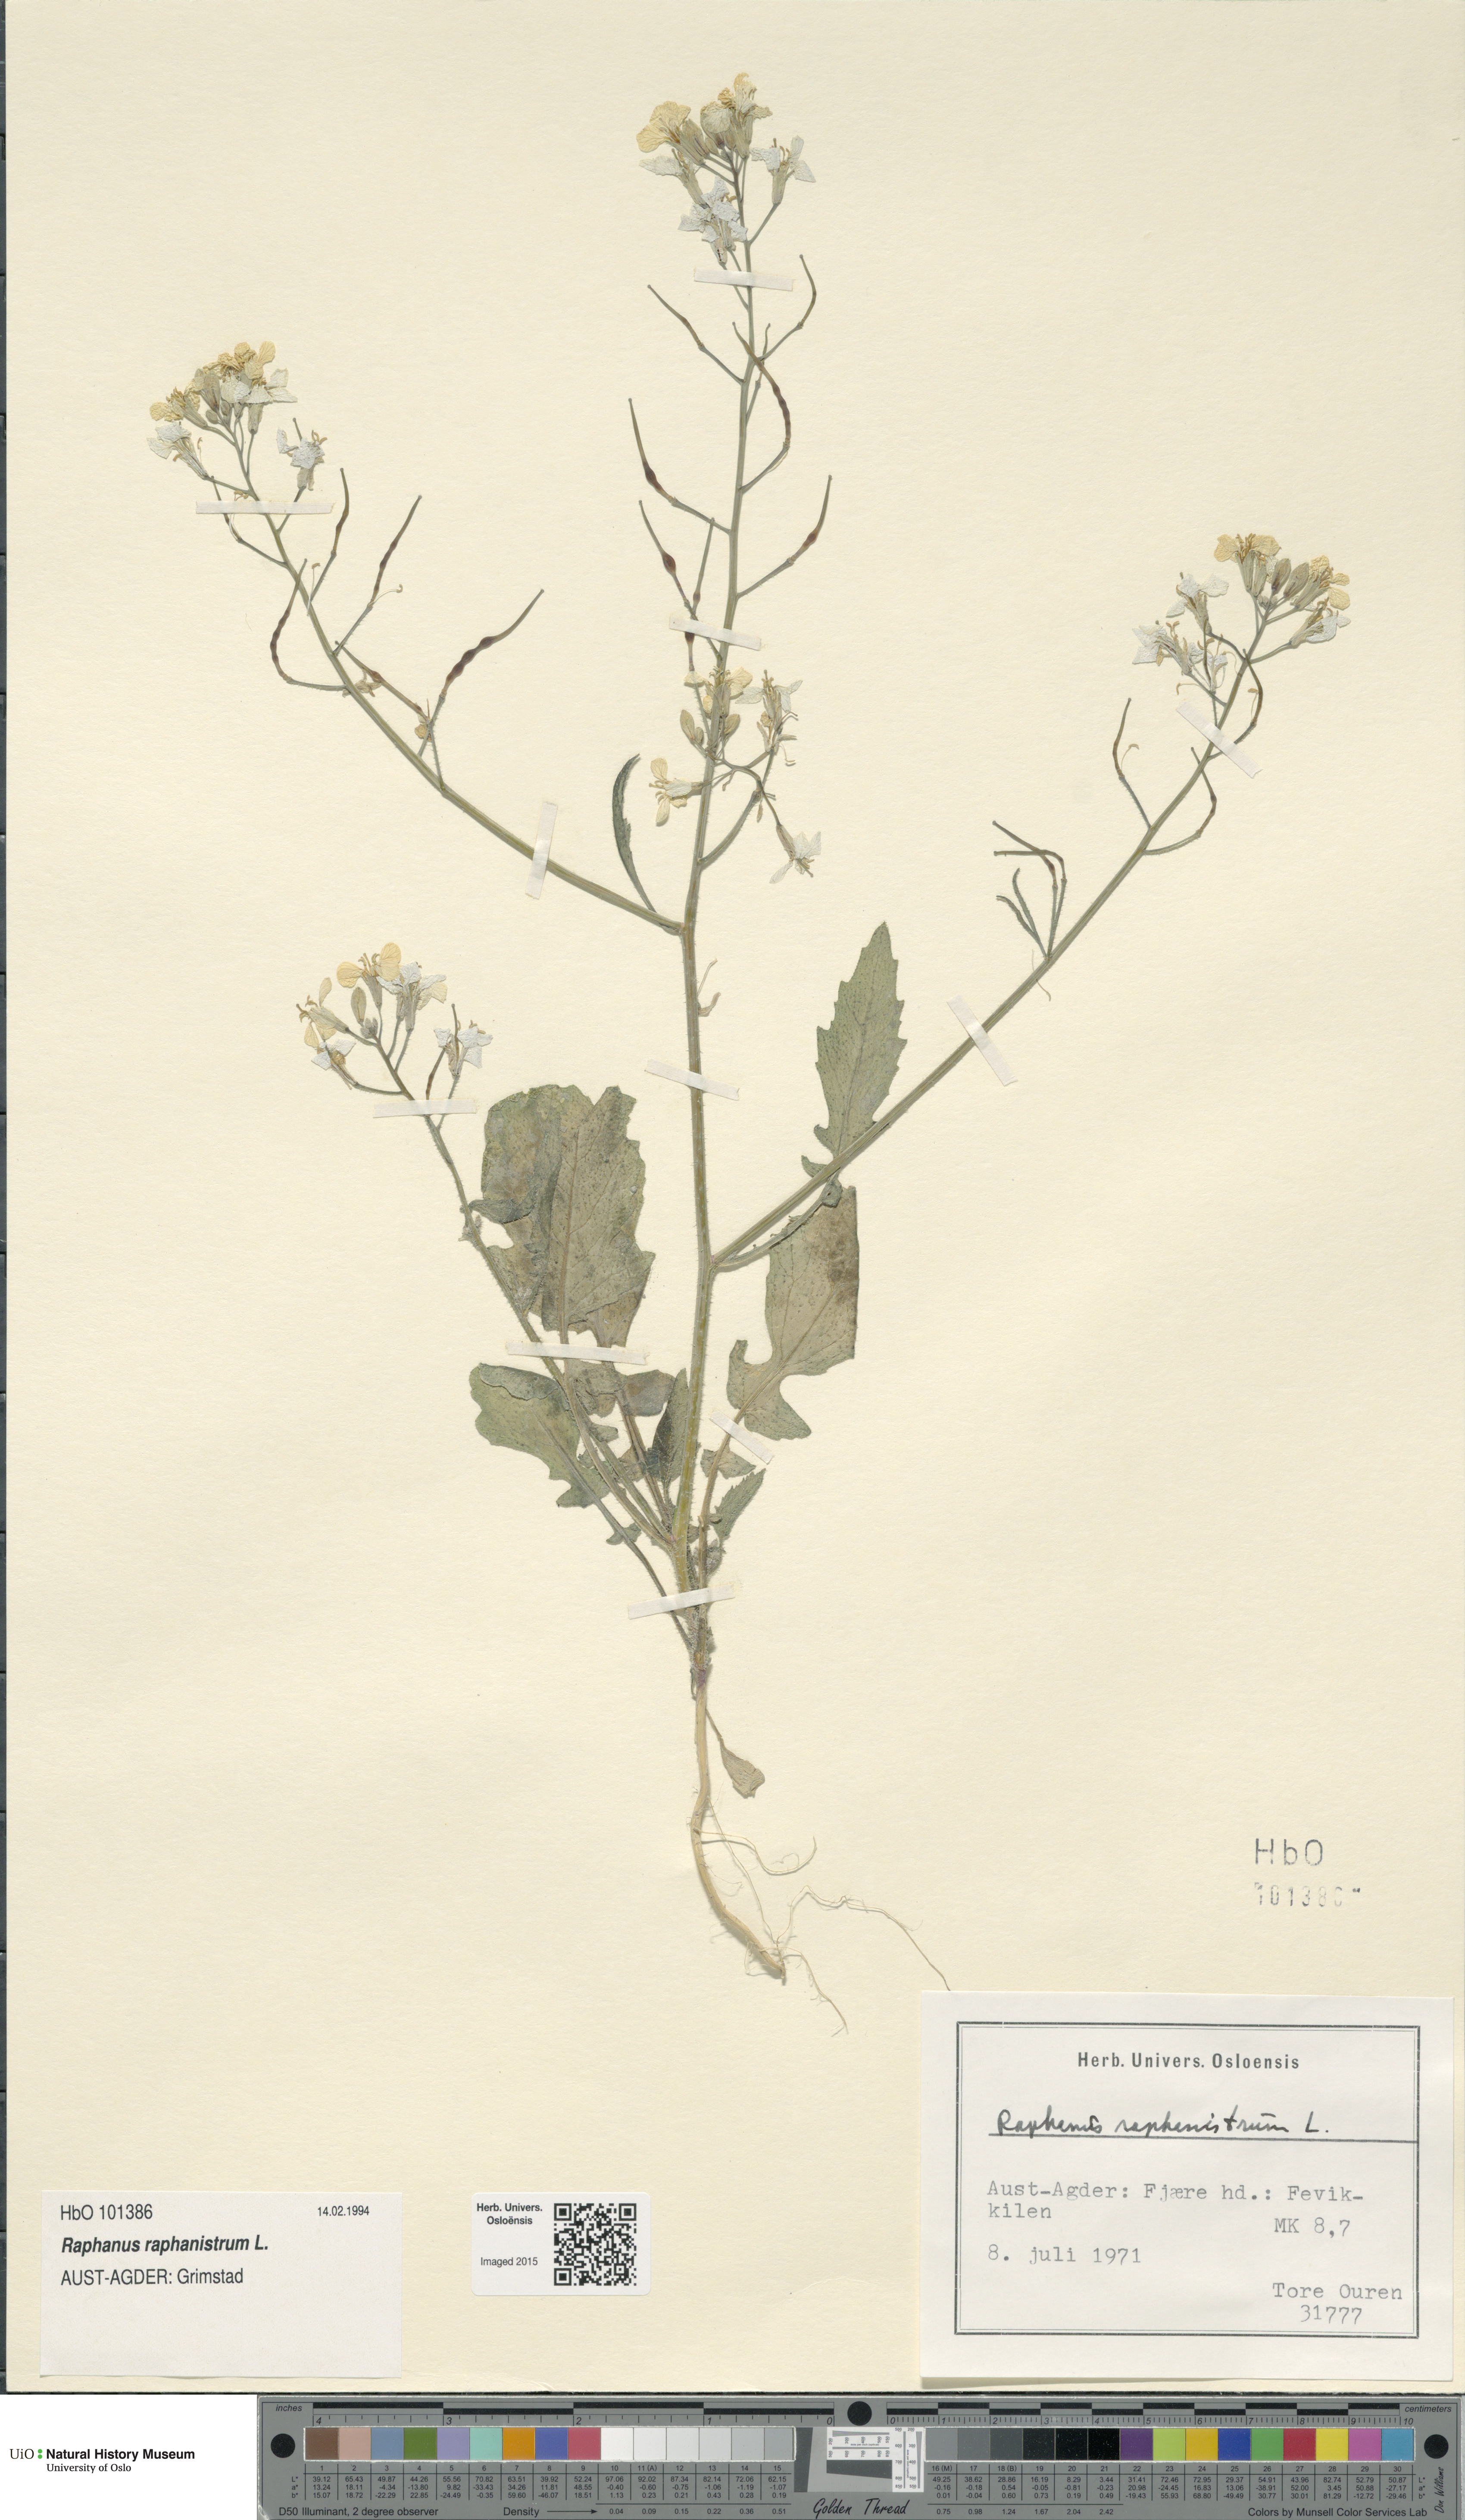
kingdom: Plantae
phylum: Tracheophyta
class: Magnoliopsida
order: Brassicales
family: Brassicaceae
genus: Raphanus
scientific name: Raphanus raphanistrum
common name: Wild radish
